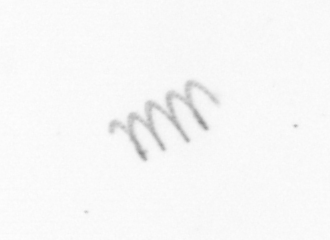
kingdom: Chromista
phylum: Ochrophyta
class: Bacillariophyceae
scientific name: Bacillariophyceae
